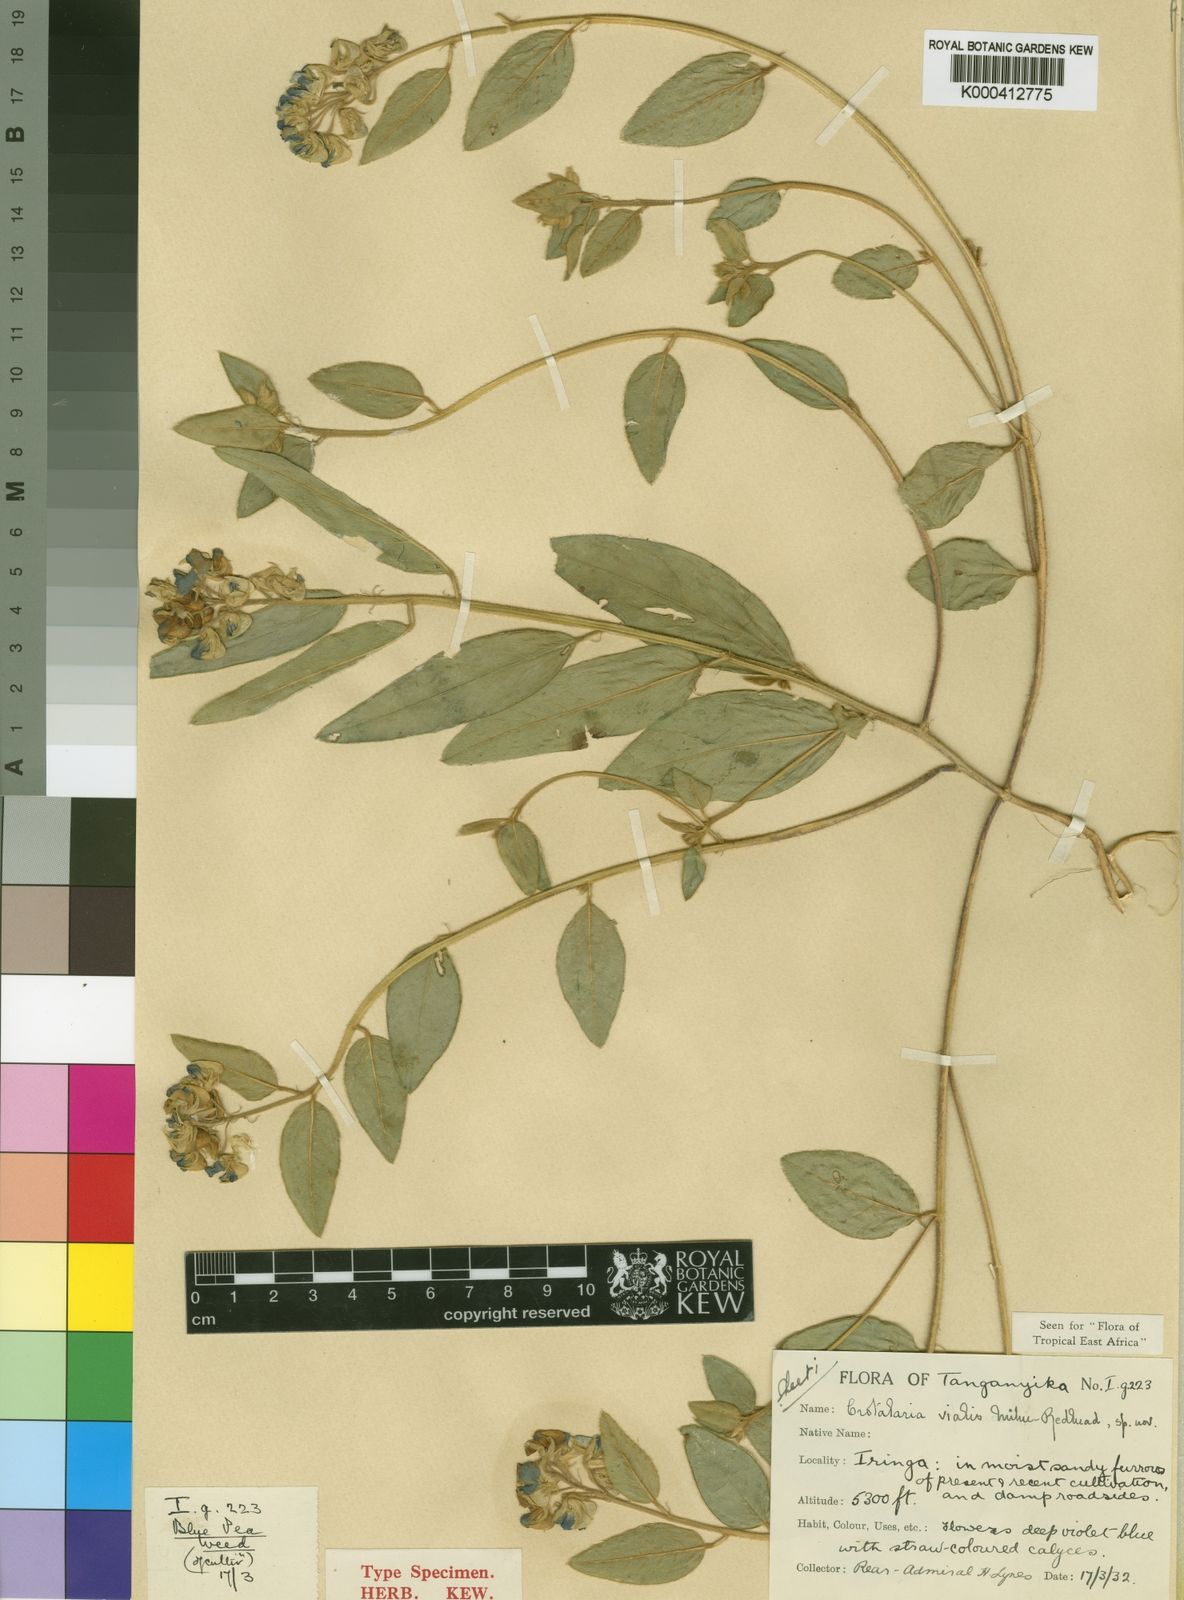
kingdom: Plantae
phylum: Tracheophyta
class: Magnoliopsida
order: Fabales
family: Fabaceae
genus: Crotalaria
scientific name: Crotalaria vialis
